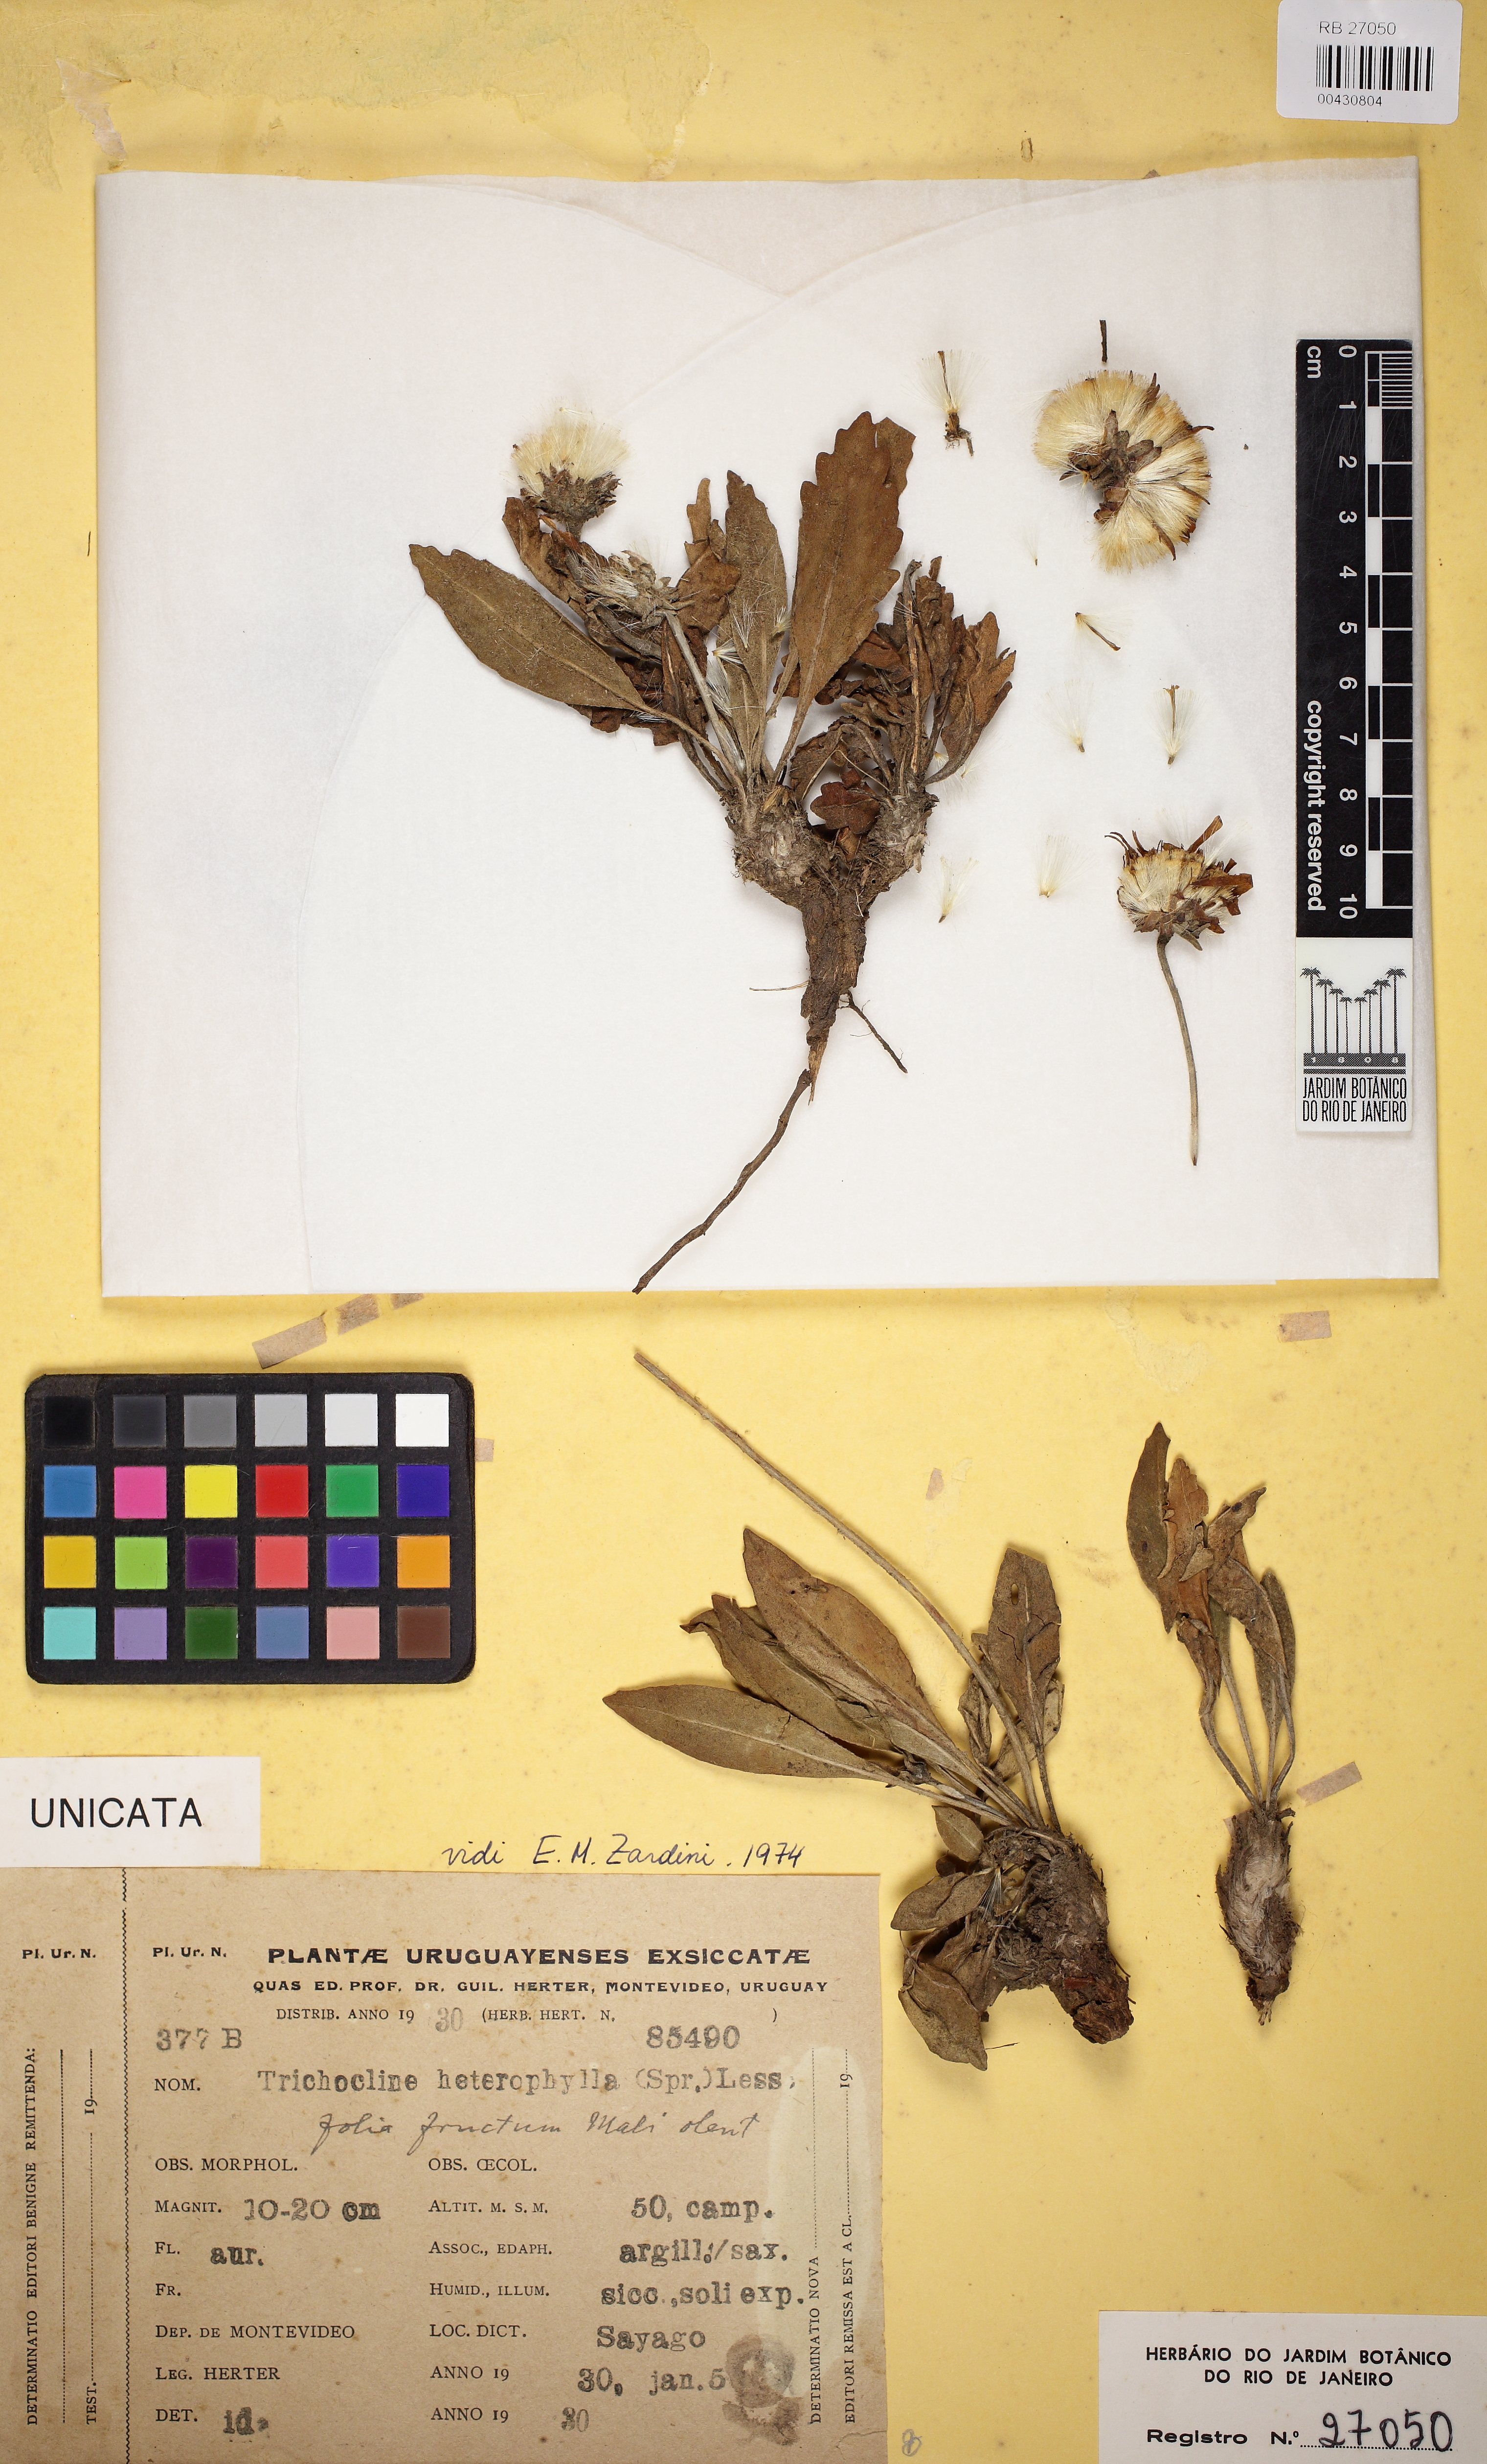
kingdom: Plantae
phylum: Tracheophyta
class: Magnoliopsida
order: Asterales
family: Asteraceae
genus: Trichocline
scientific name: Trichocline heterophylla
